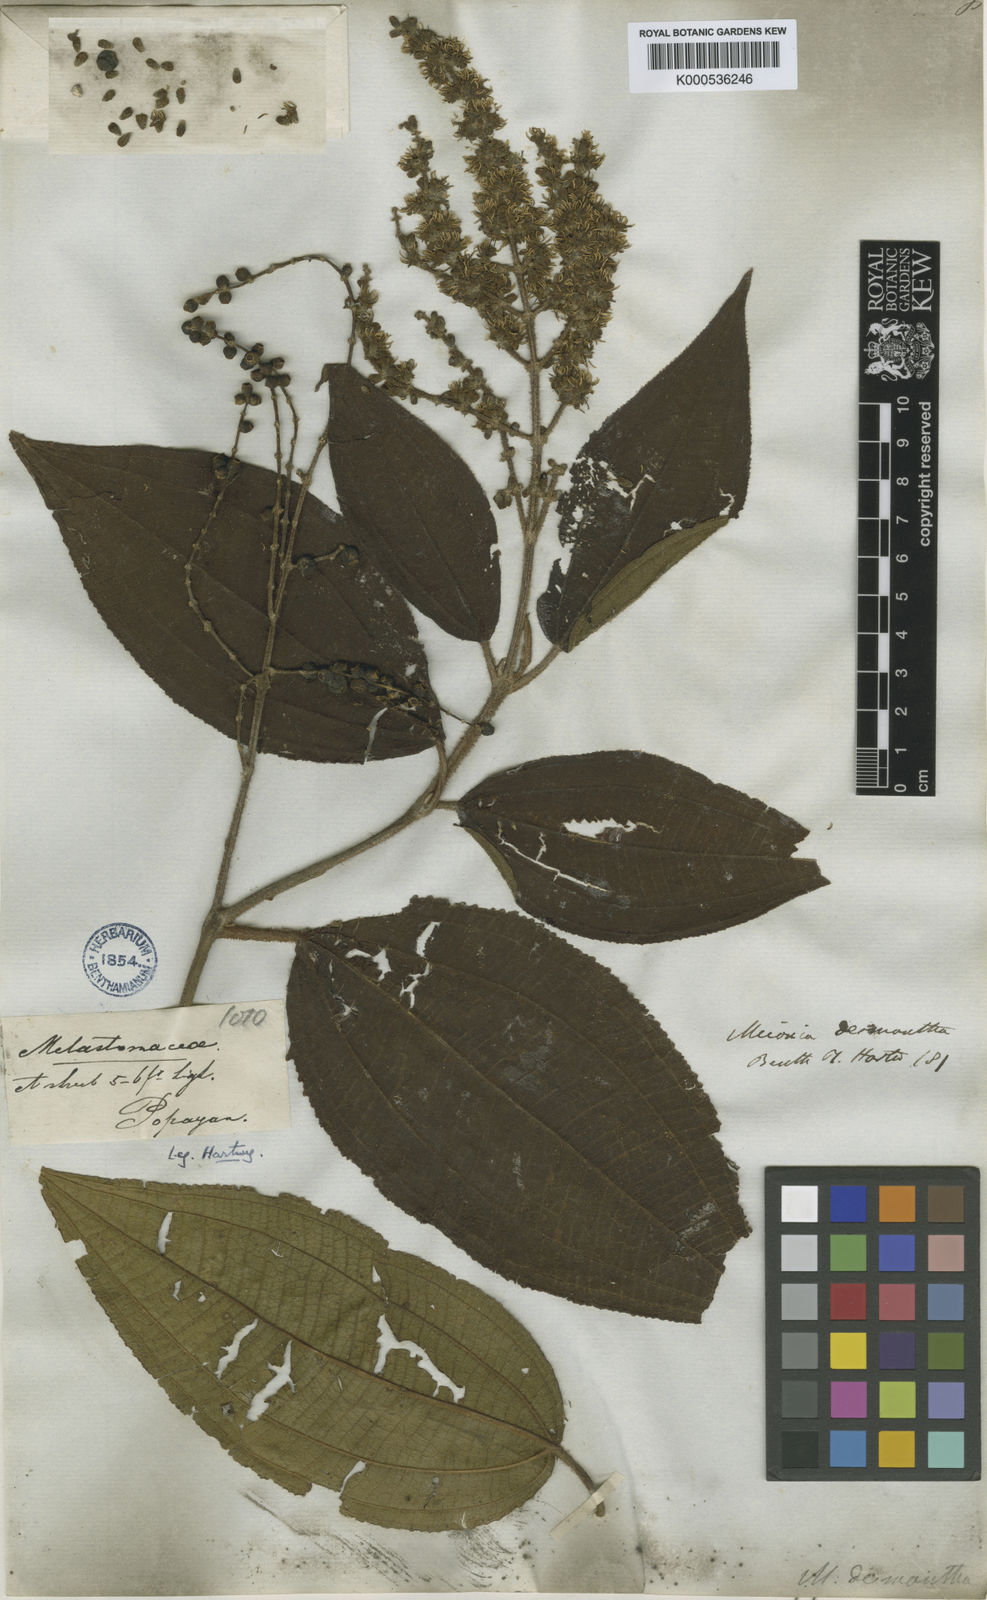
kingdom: Plantae
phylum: Tracheophyta
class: Magnoliopsida
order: Myrtales
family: Melastomataceae
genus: Miconia
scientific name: Miconia desmantha
